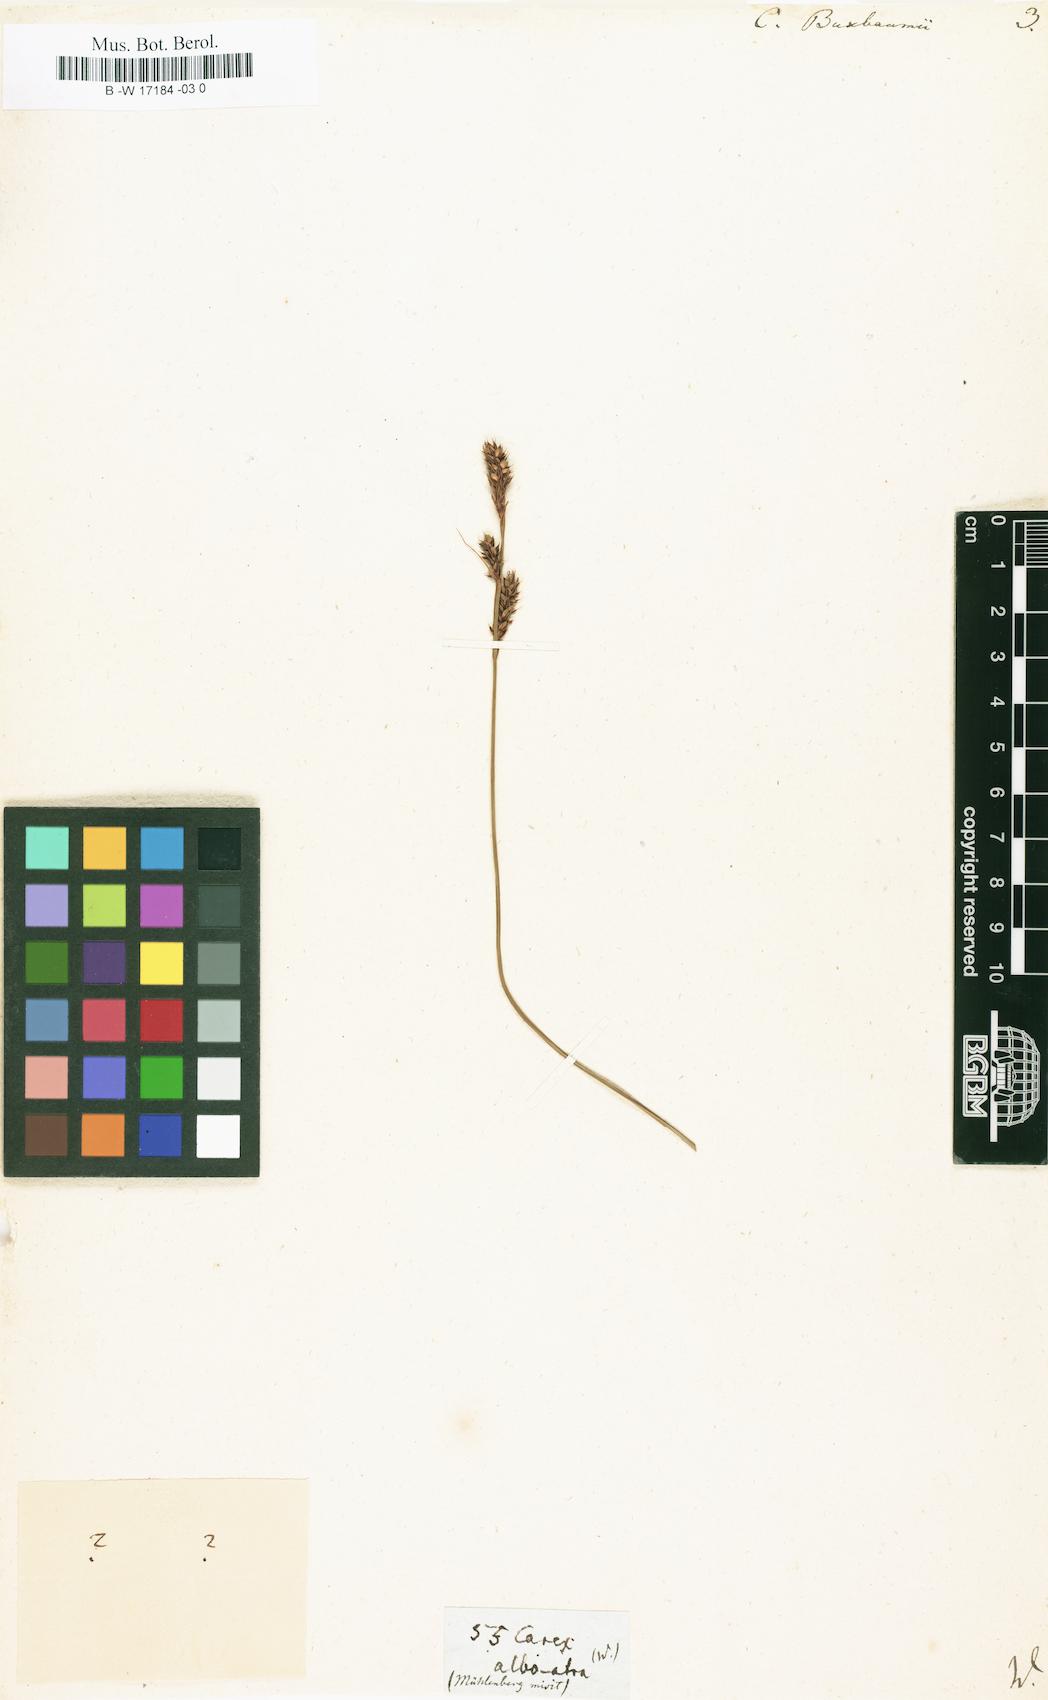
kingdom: Plantae
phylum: Tracheophyta
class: Liliopsida
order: Poales
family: Cyperaceae
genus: Carex
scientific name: Carex buxbaumii
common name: Club sedge
